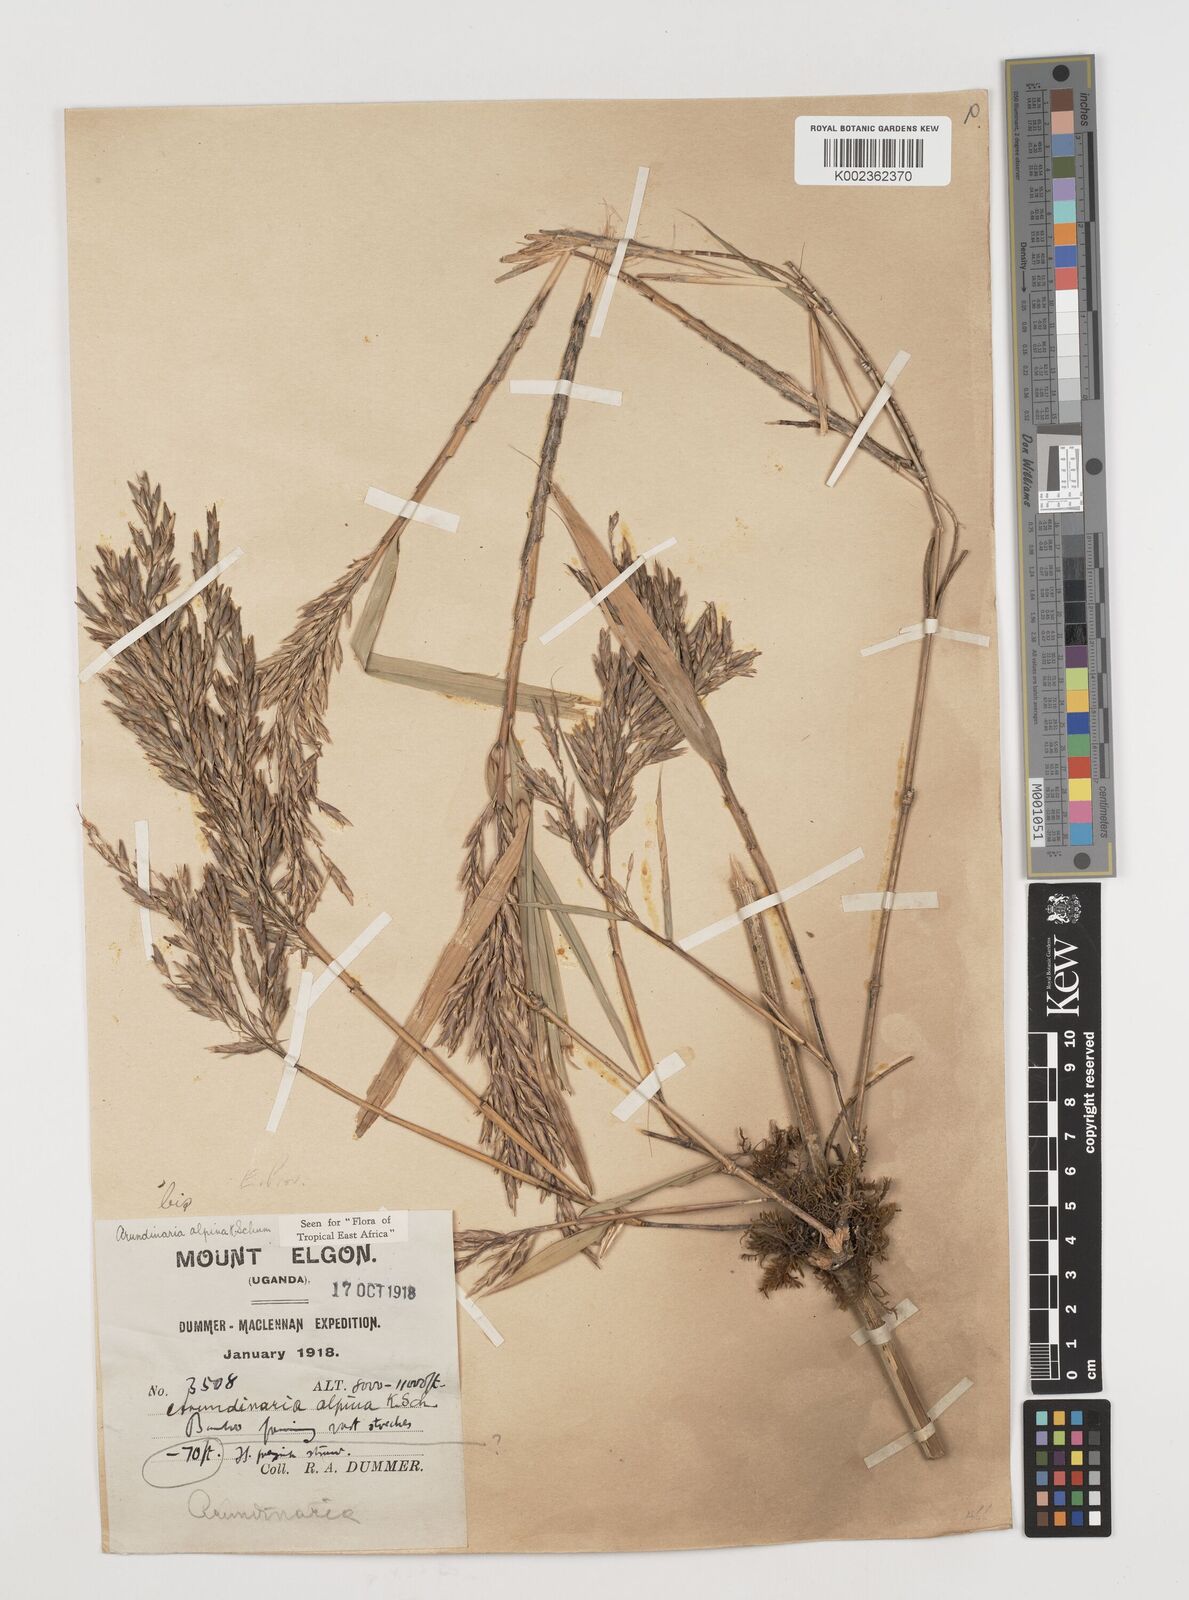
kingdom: Plantae
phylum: Tracheophyta
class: Liliopsida
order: Poales
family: Poaceae
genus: Oldeania
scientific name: Oldeania alpina
